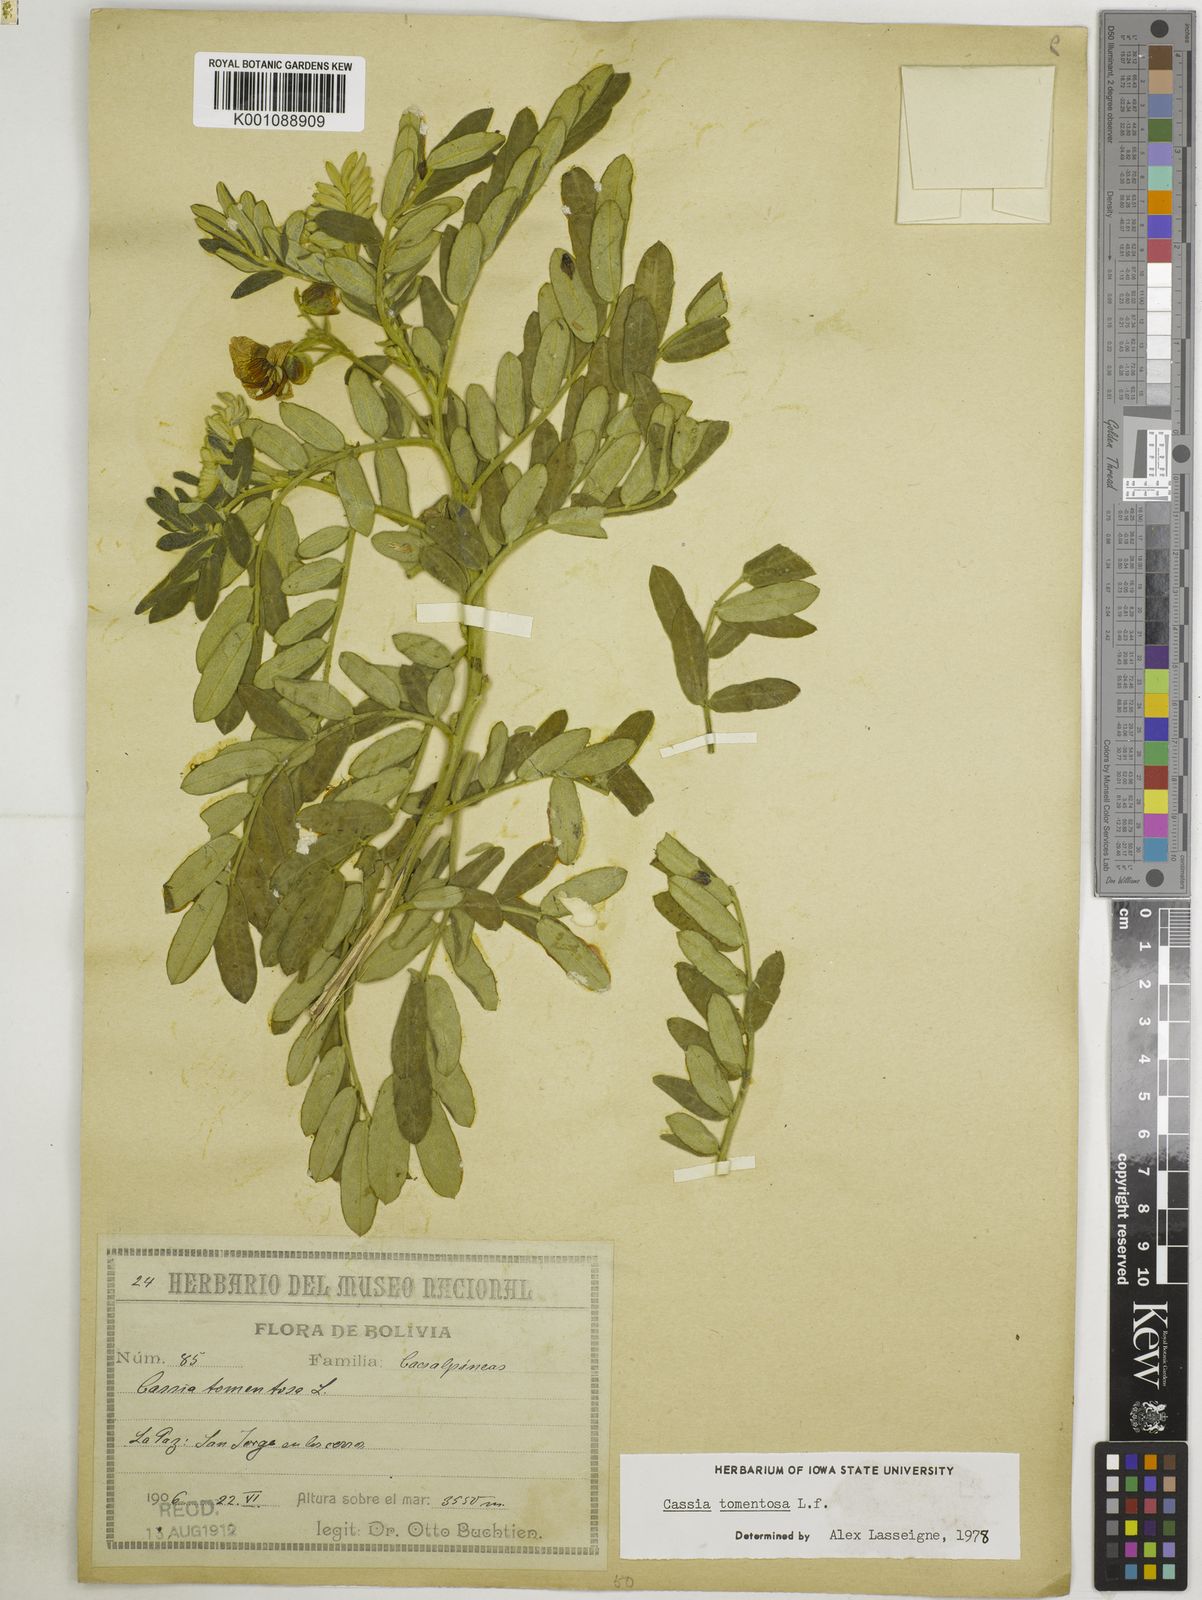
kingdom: Plantae
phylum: Tracheophyta
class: Magnoliopsida
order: Fabales
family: Fabaceae
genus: Senna
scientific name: Senna multiglandulosa
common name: Glandular senna
